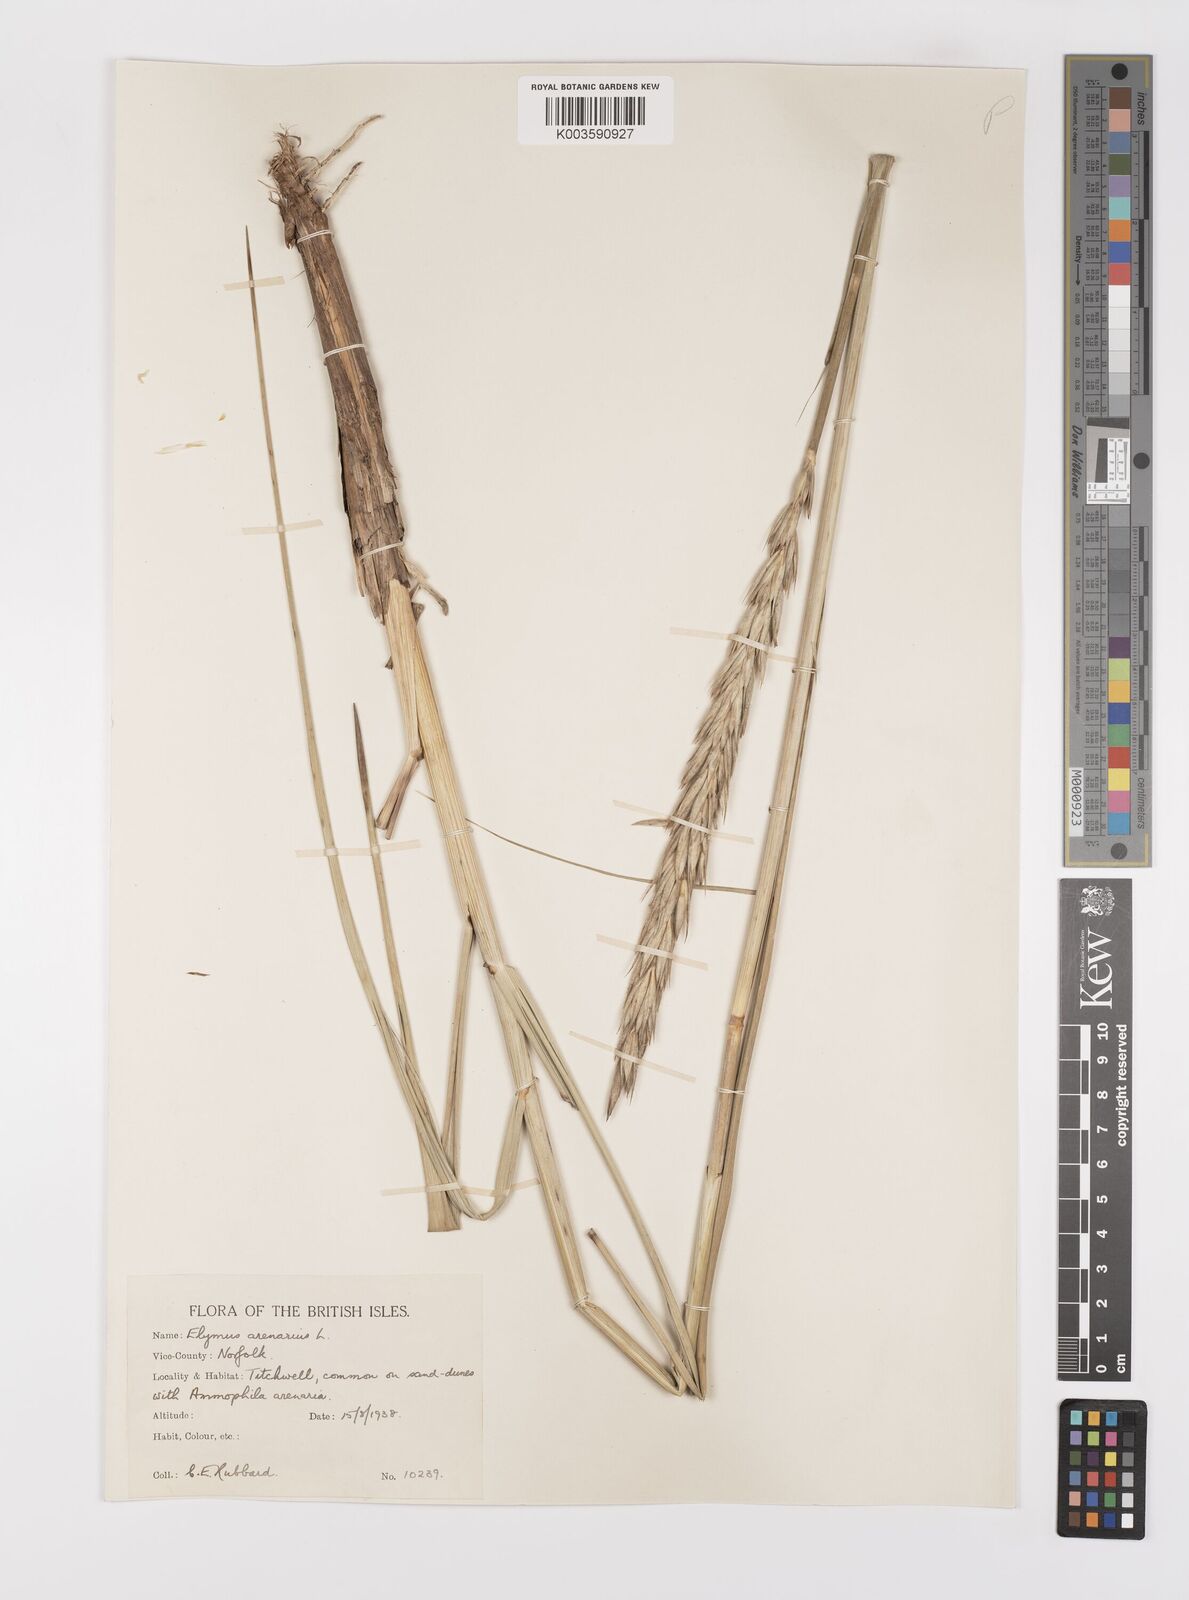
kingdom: Plantae
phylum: Tracheophyta
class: Liliopsida
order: Poales
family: Poaceae
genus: Leymus
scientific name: Leymus arenarius
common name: Lyme-grass
